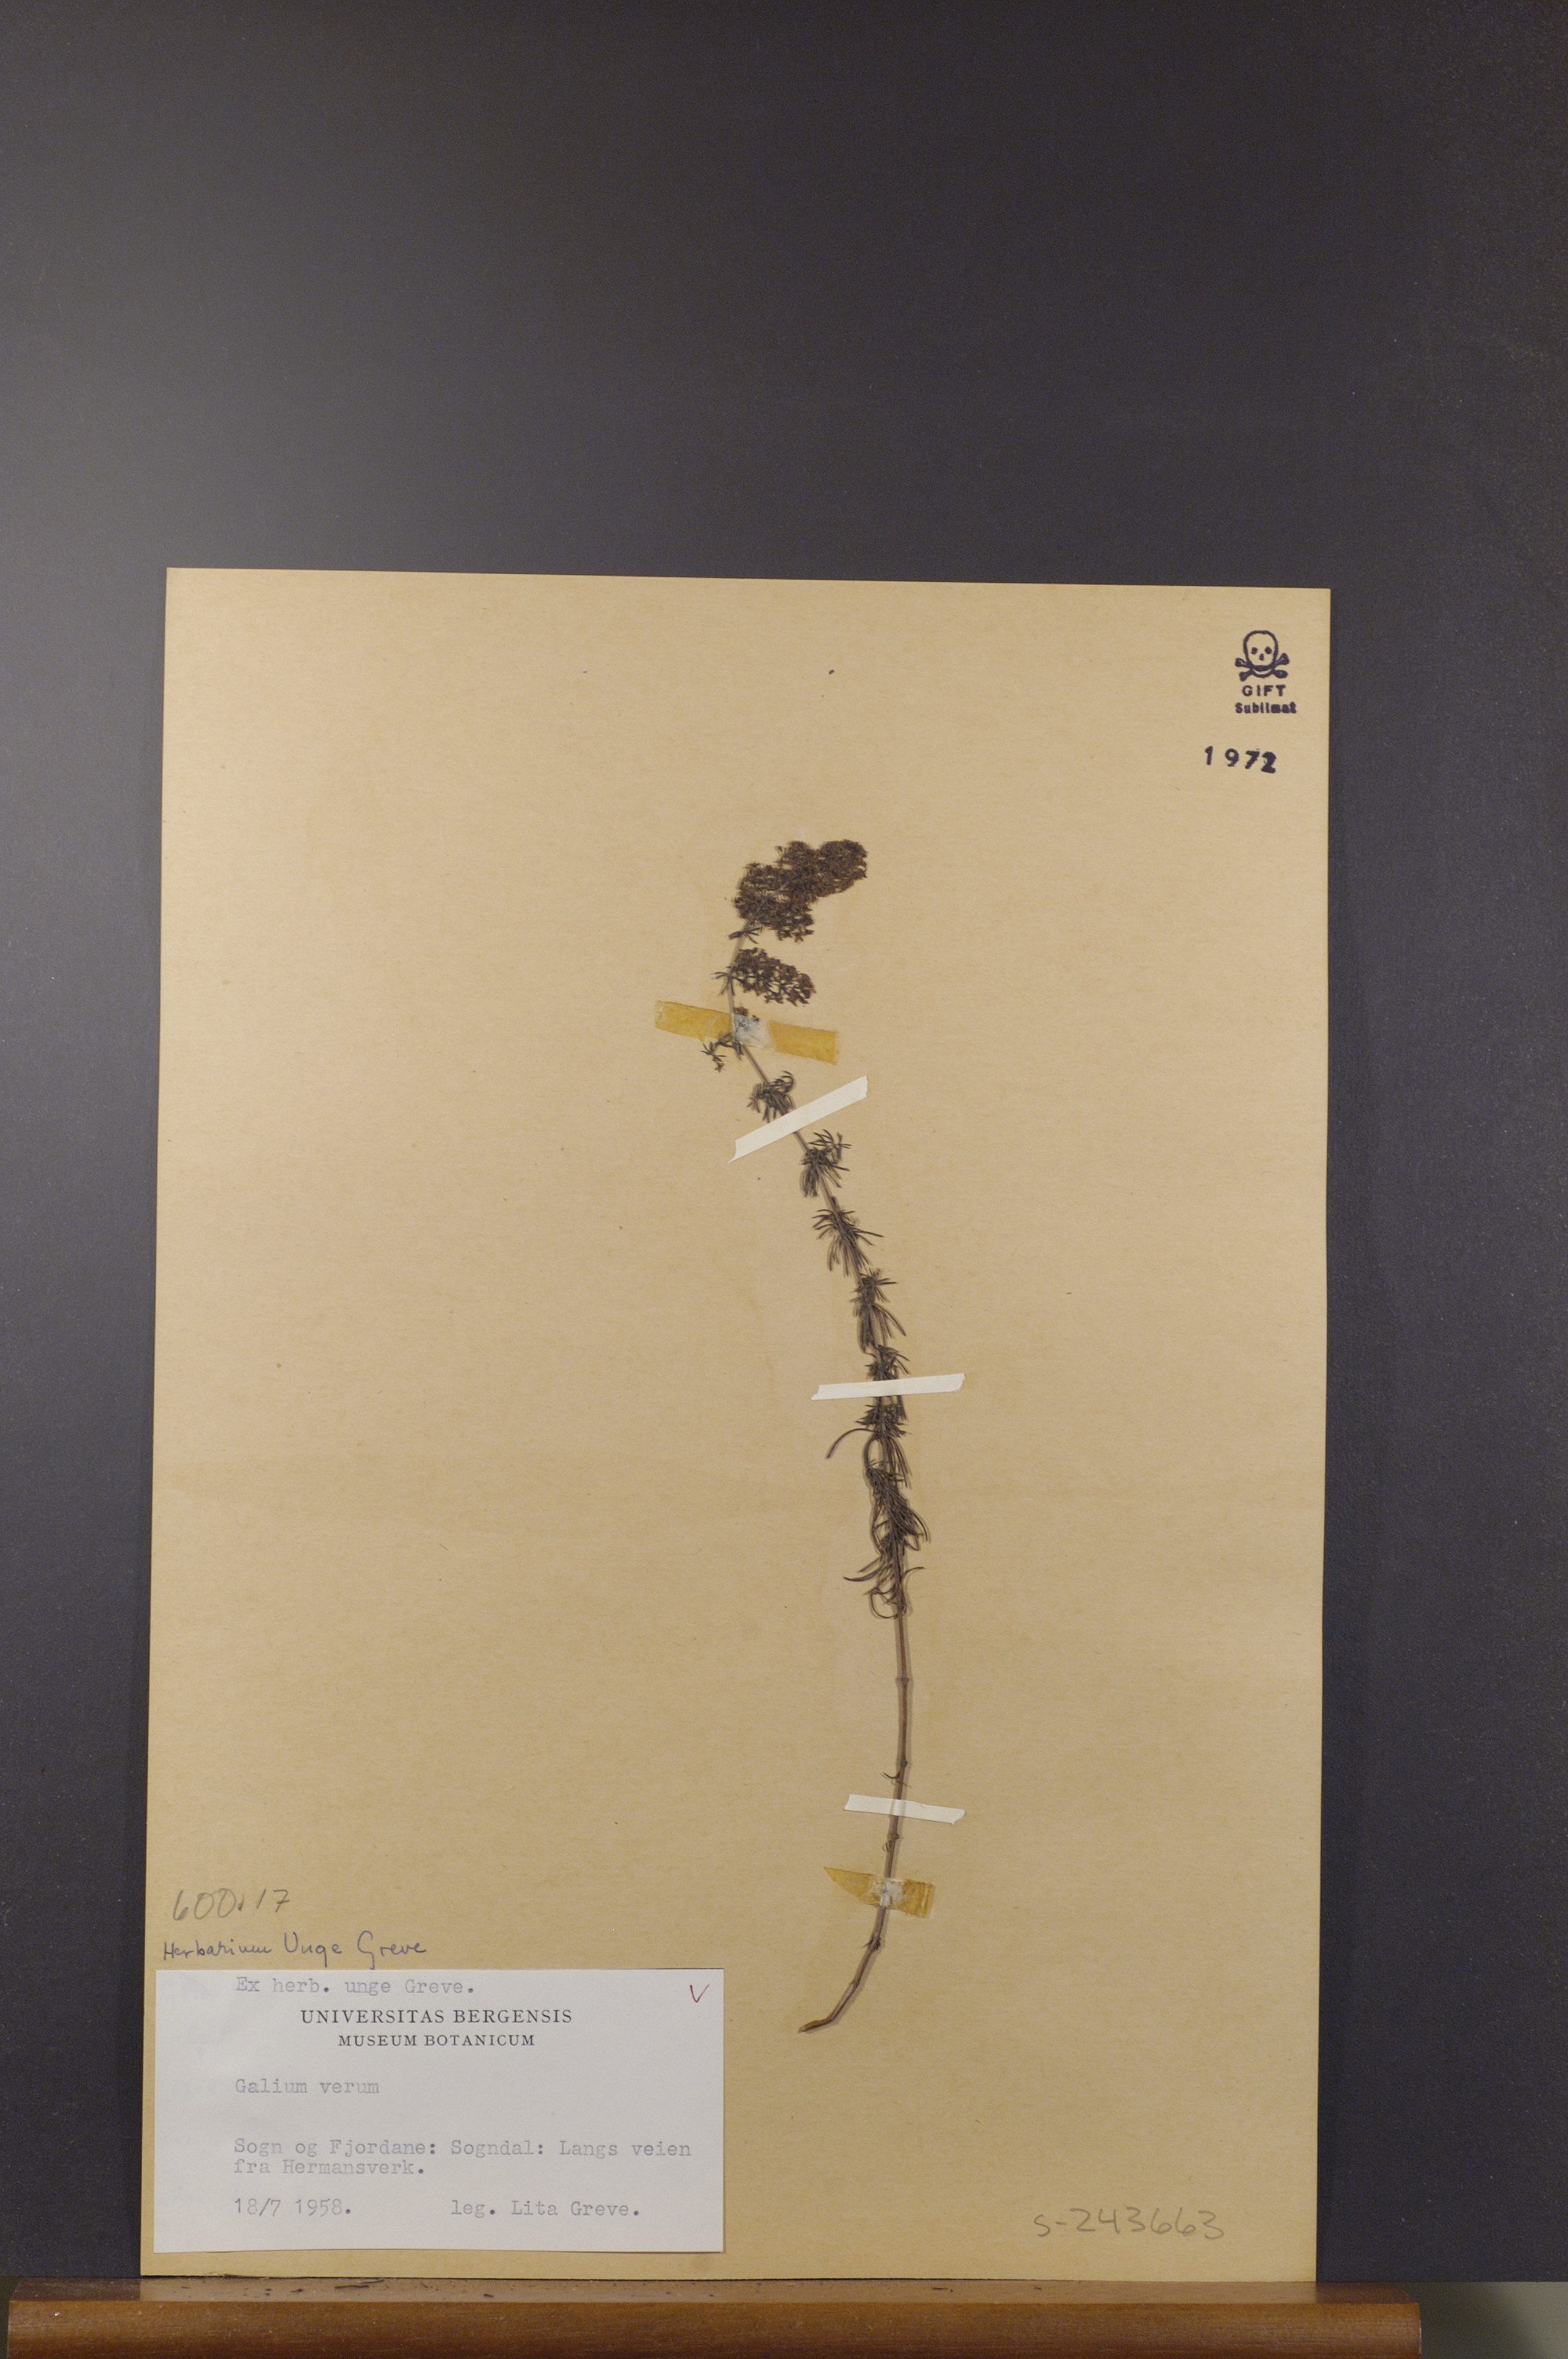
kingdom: Plantae
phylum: Tracheophyta
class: Magnoliopsida
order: Gentianales
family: Rubiaceae
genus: Galium
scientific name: Galium verum
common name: Lady's bedstraw
